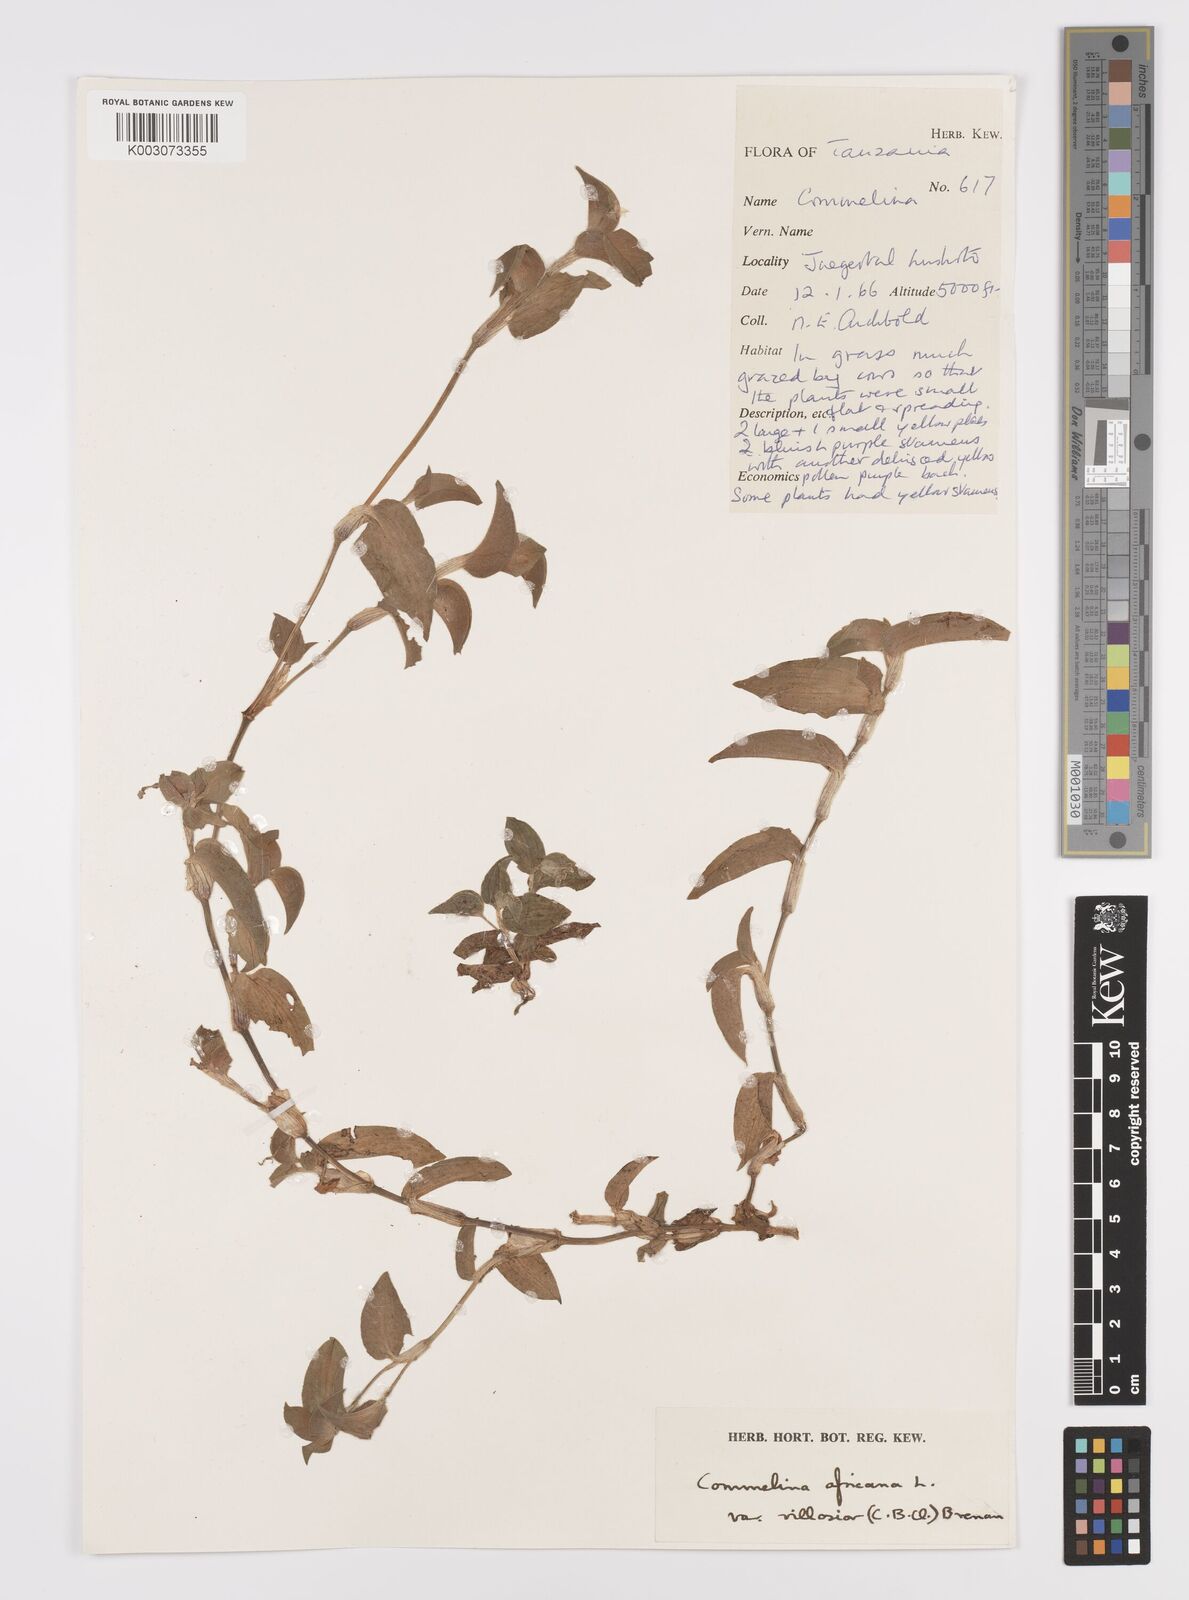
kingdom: Plantae
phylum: Tracheophyta
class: Liliopsida
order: Commelinales
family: Commelinaceae
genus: Commelina
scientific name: Commelina africana
